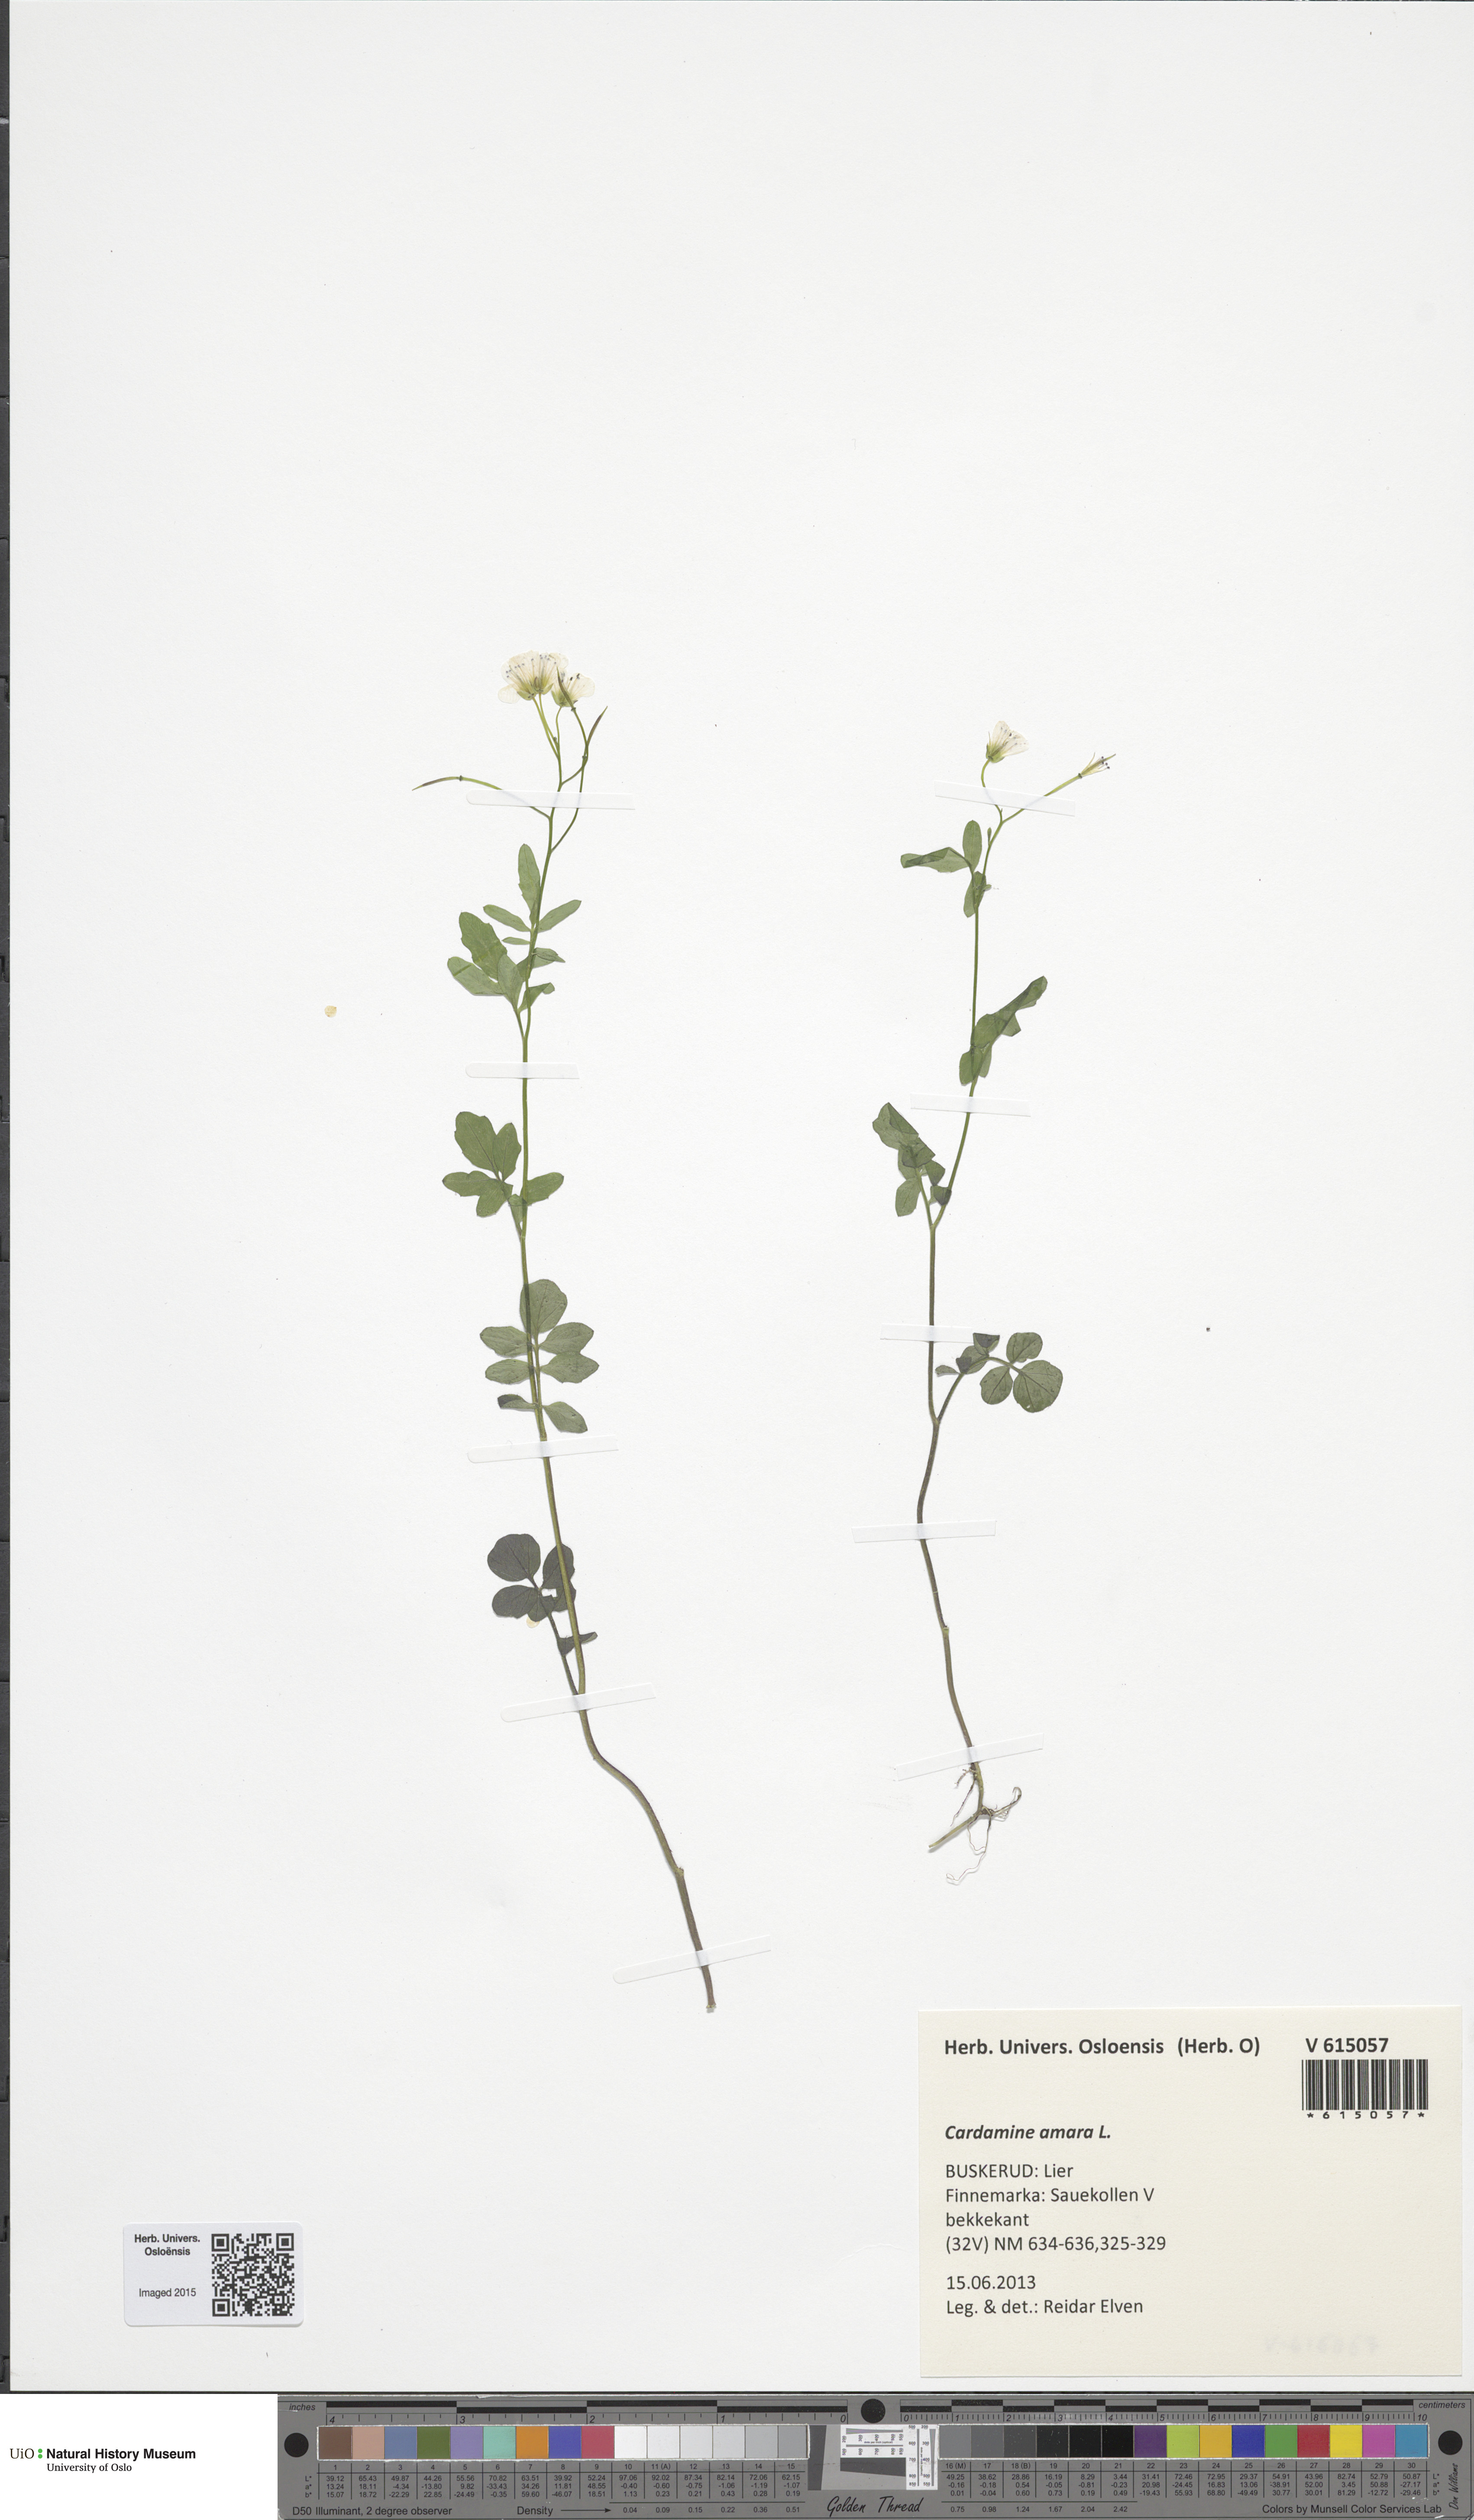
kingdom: Plantae
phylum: Tracheophyta
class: Magnoliopsida
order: Brassicales
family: Brassicaceae
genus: Cardamine
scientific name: Cardamine amara
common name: Large bitter-cress
